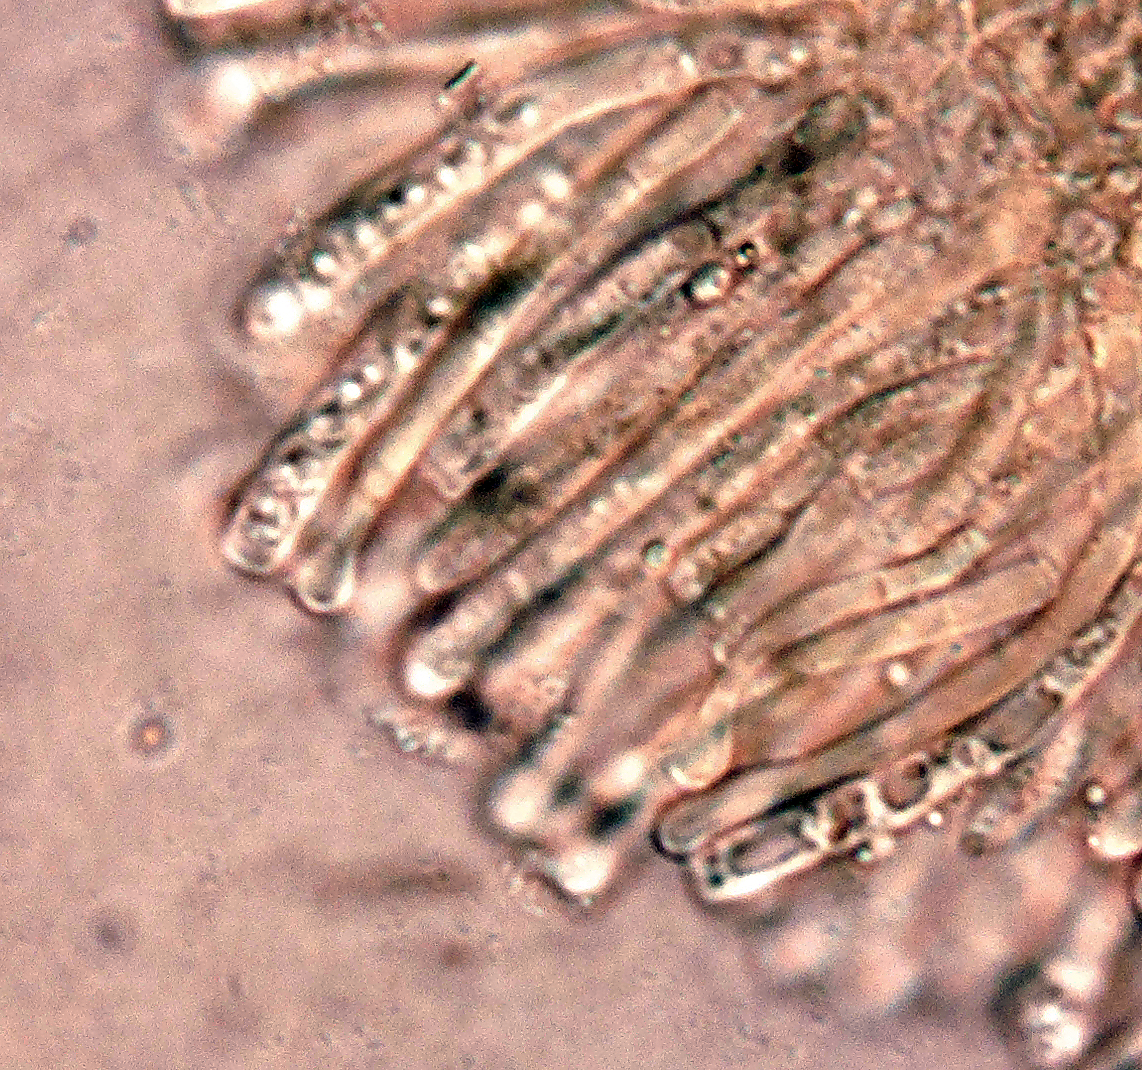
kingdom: Fungi
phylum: Ascomycota
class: Orbiliomycetes
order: Orbiliales
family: Orbiliaceae
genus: Orbilia
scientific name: Orbilia xanthostigma
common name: krumsporet voksskive
